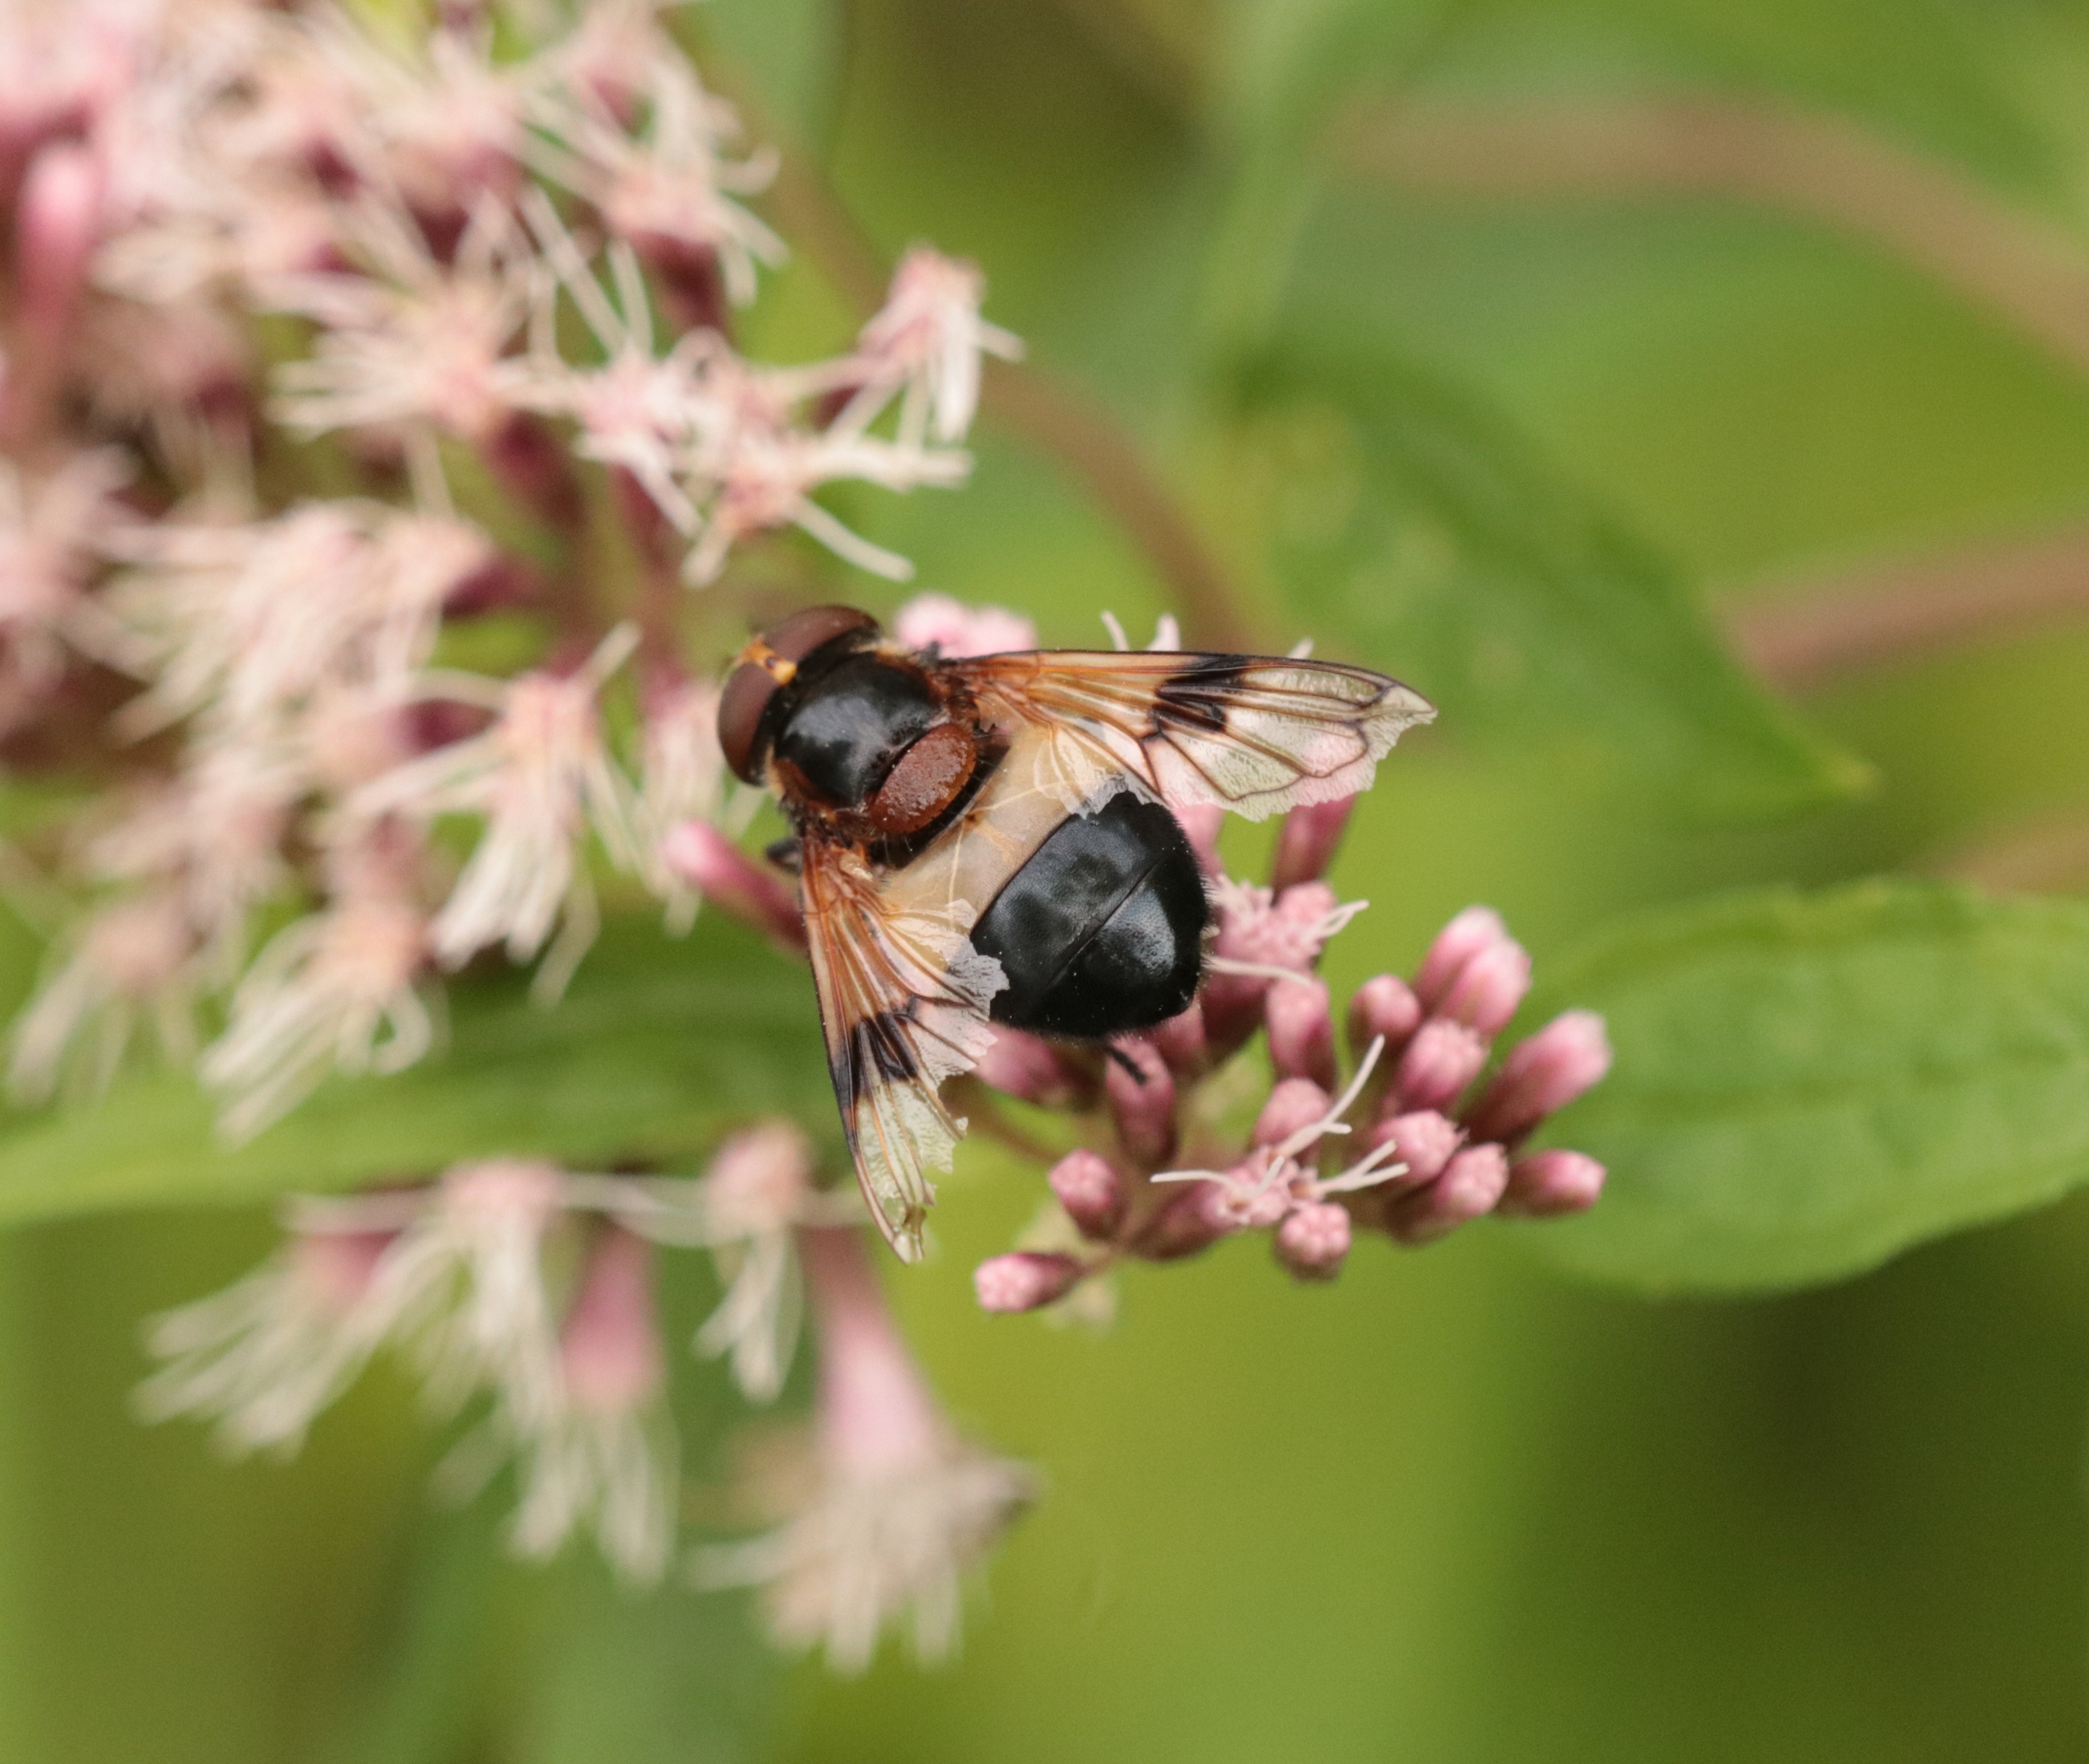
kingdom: Animalia
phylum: Arthropoda
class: Insecta
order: Diptera
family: Syrphidae
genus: Volucella
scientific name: Volucella pellucens
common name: Hvidbåndet humlesvirreflue
